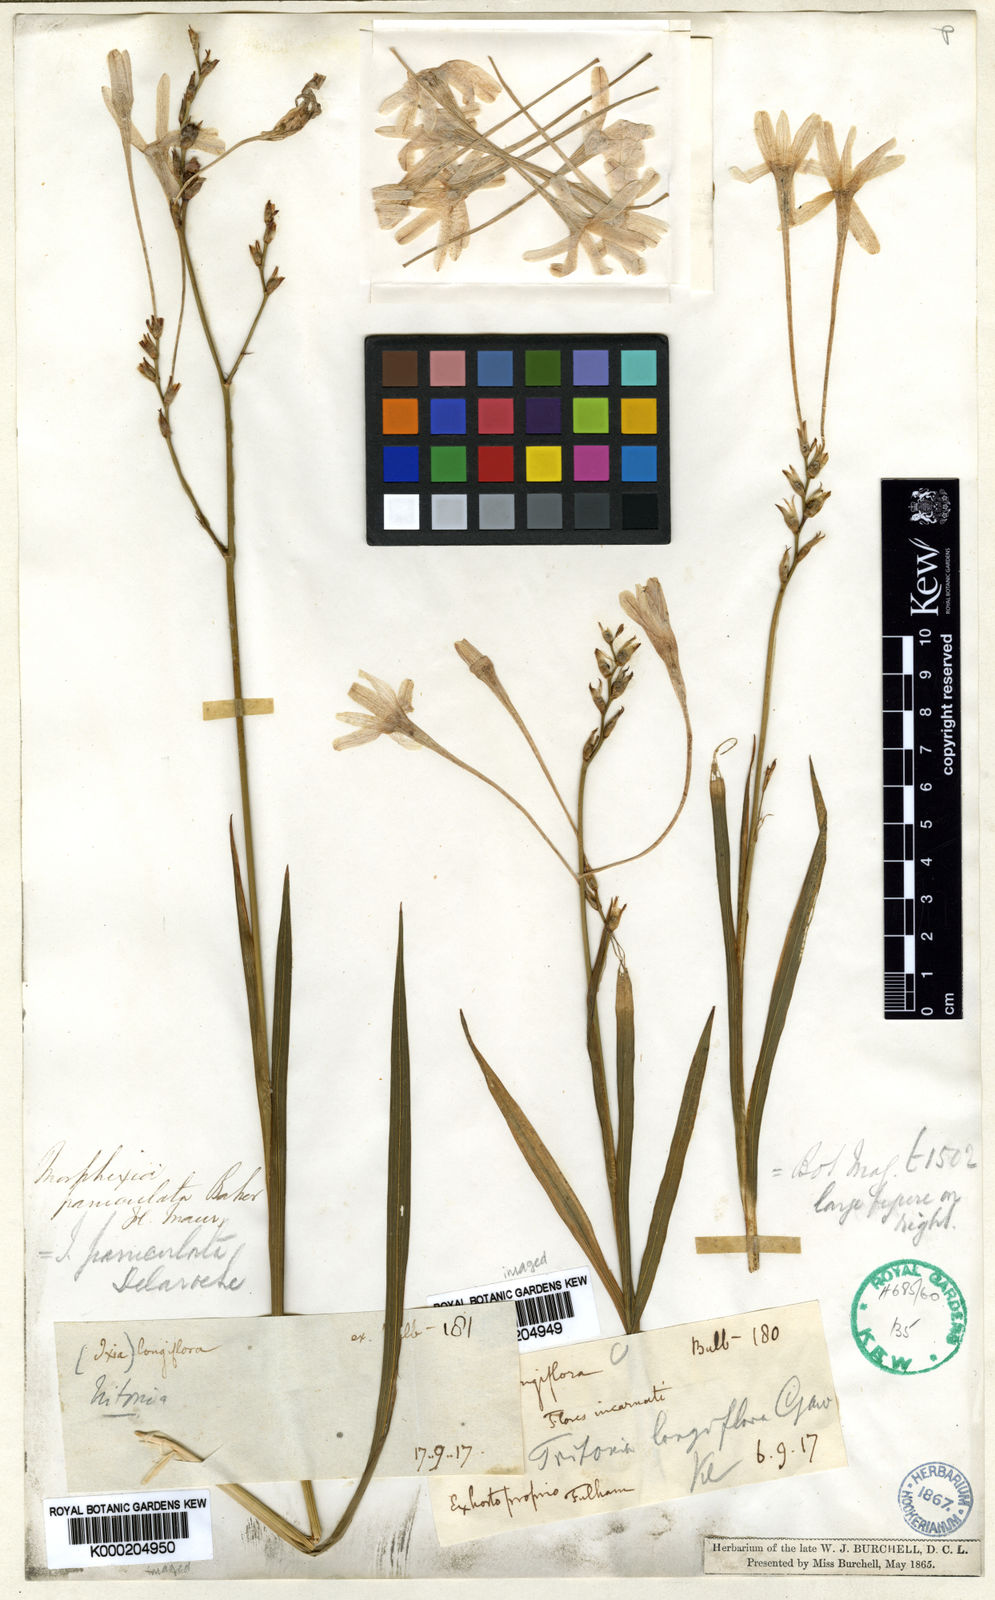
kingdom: Plantae
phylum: Tracheophyta
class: Liliopsida
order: Asparagales
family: Iridaceae
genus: Ixia
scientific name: Ixia paniculata
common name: Tubular corn-lily
